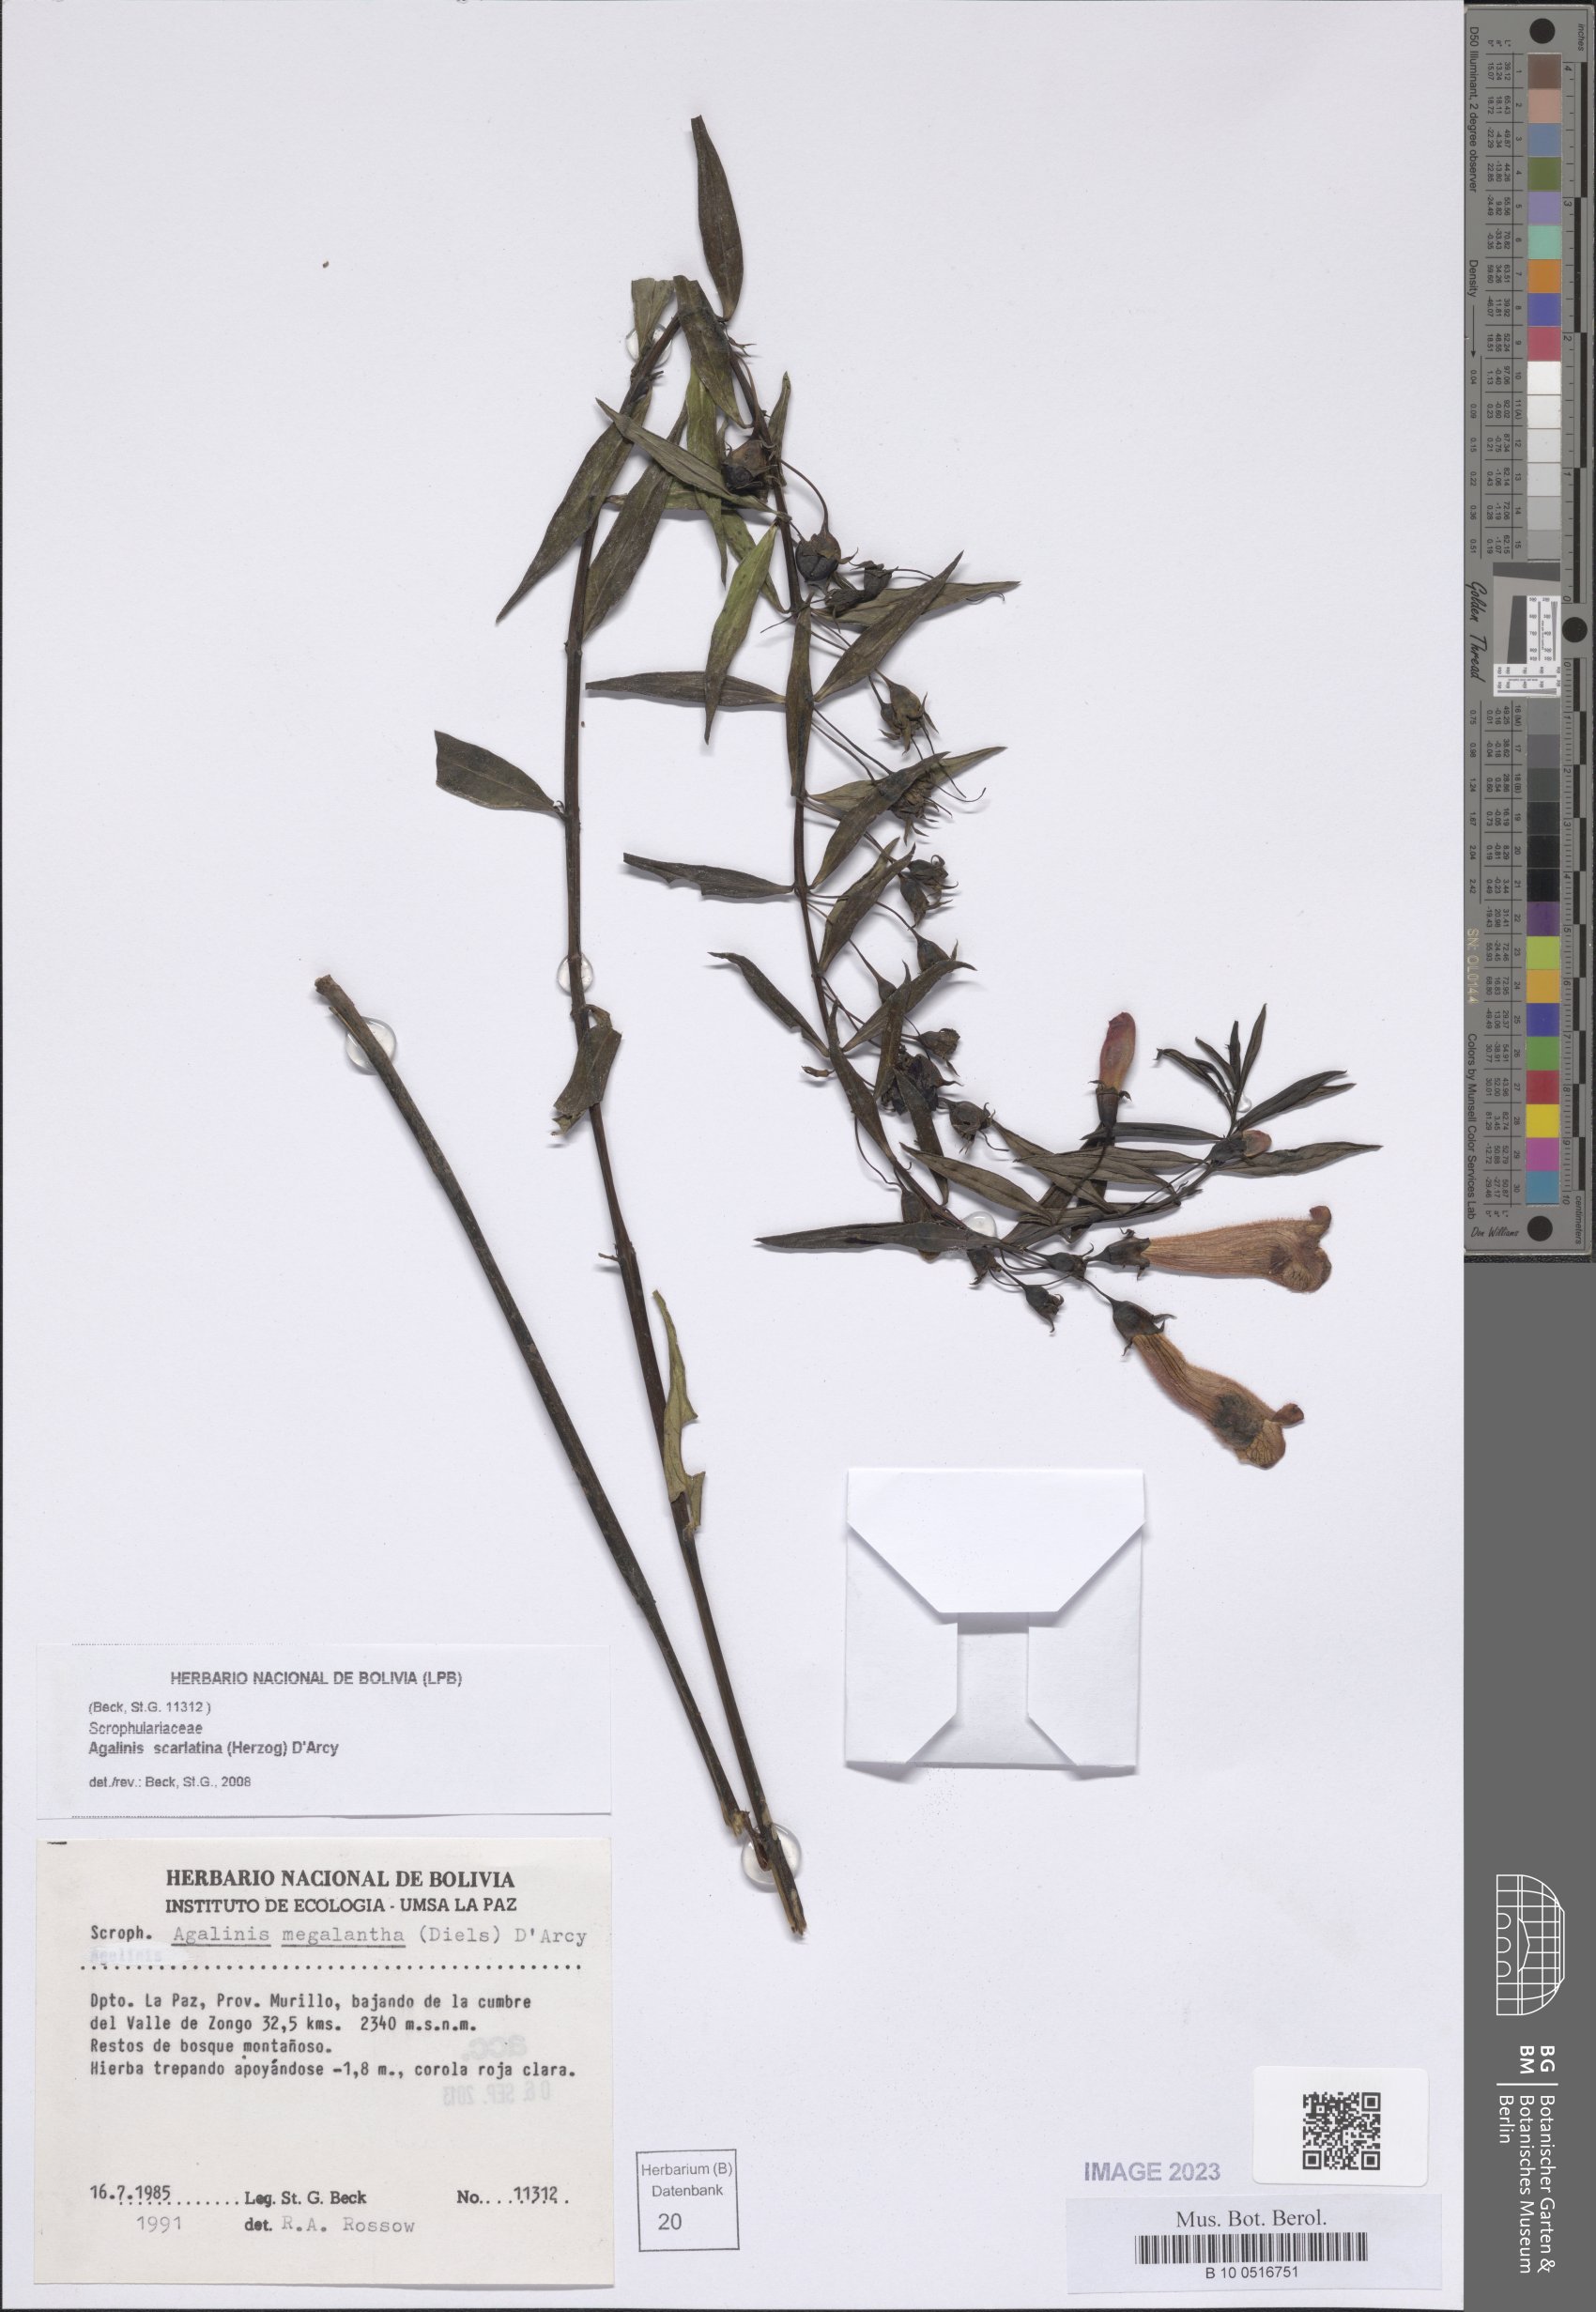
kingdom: Plantae
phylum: Tracheophyta
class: Magnoliopsida
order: Lamiales
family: Orobanchaceae
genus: Agalinis
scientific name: Agalinis scarlatina
